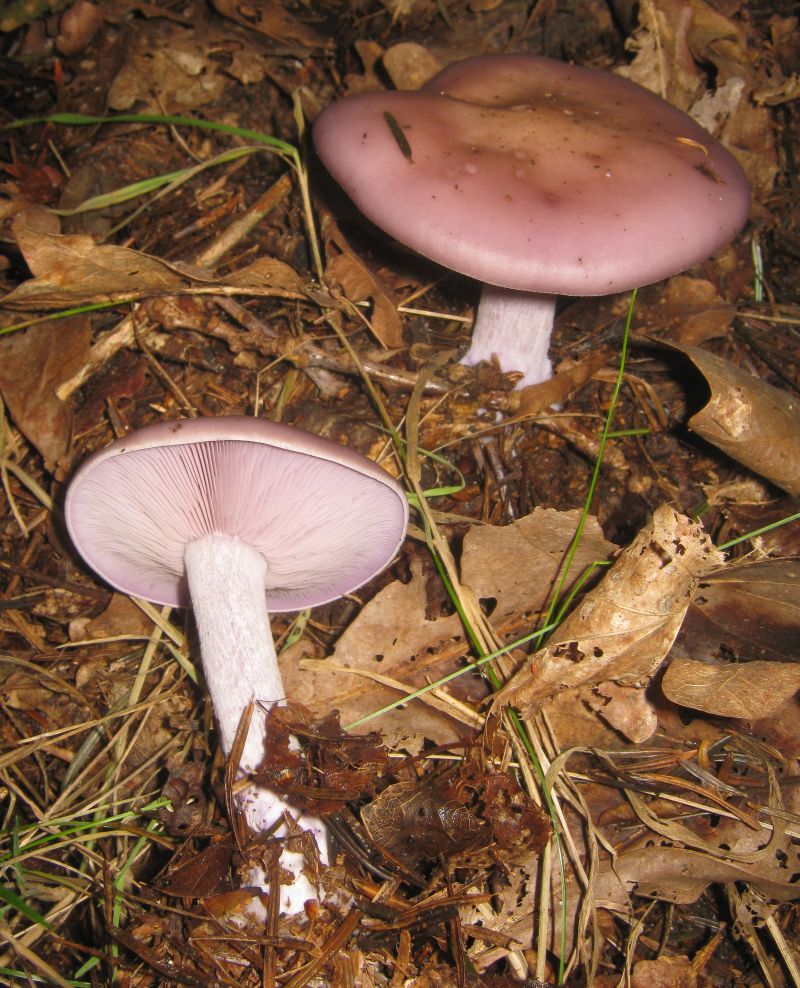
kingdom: Fungi
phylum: Basidiomycota
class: Agaricomycetes
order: Agaricales
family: Tricholomataceae
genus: Lepista
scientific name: Lepista nuda
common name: violet hekseringshat
